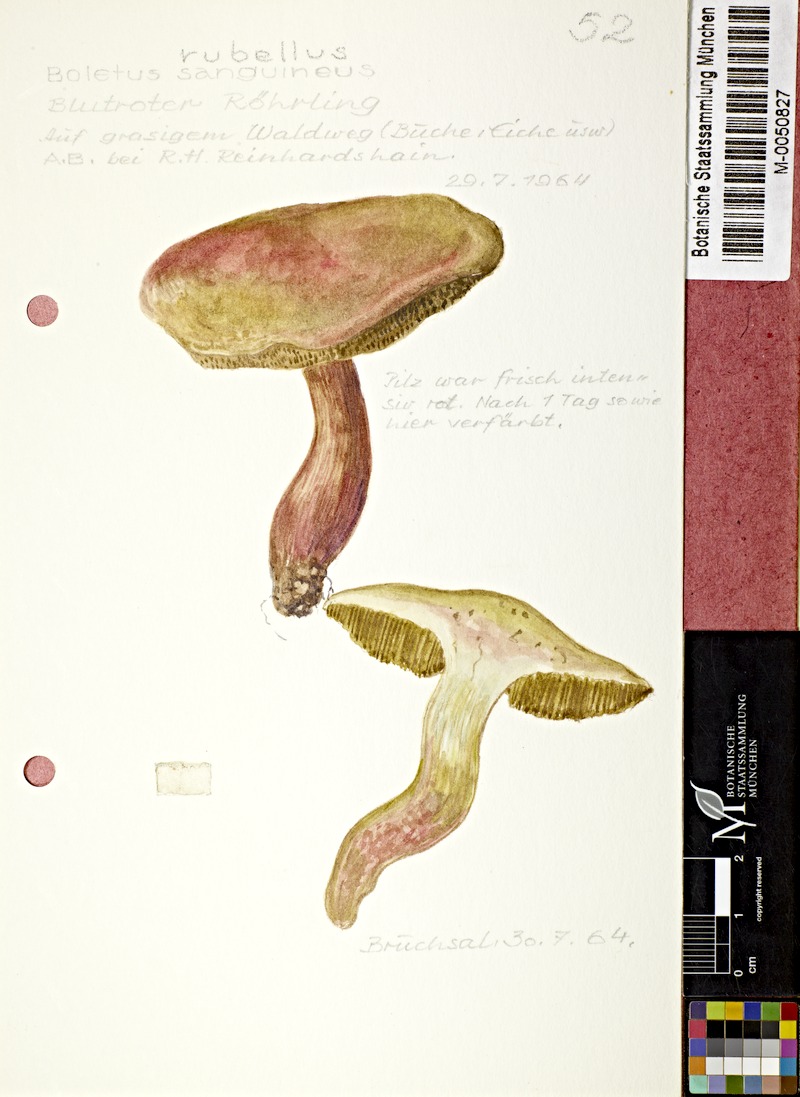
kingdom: Fungi
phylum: Basidiomycota
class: Agaricomycetes
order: Boletales
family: Boletaceae
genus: Hortiboletus
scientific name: Hortiboletus rubellus
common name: Ruby bolete
